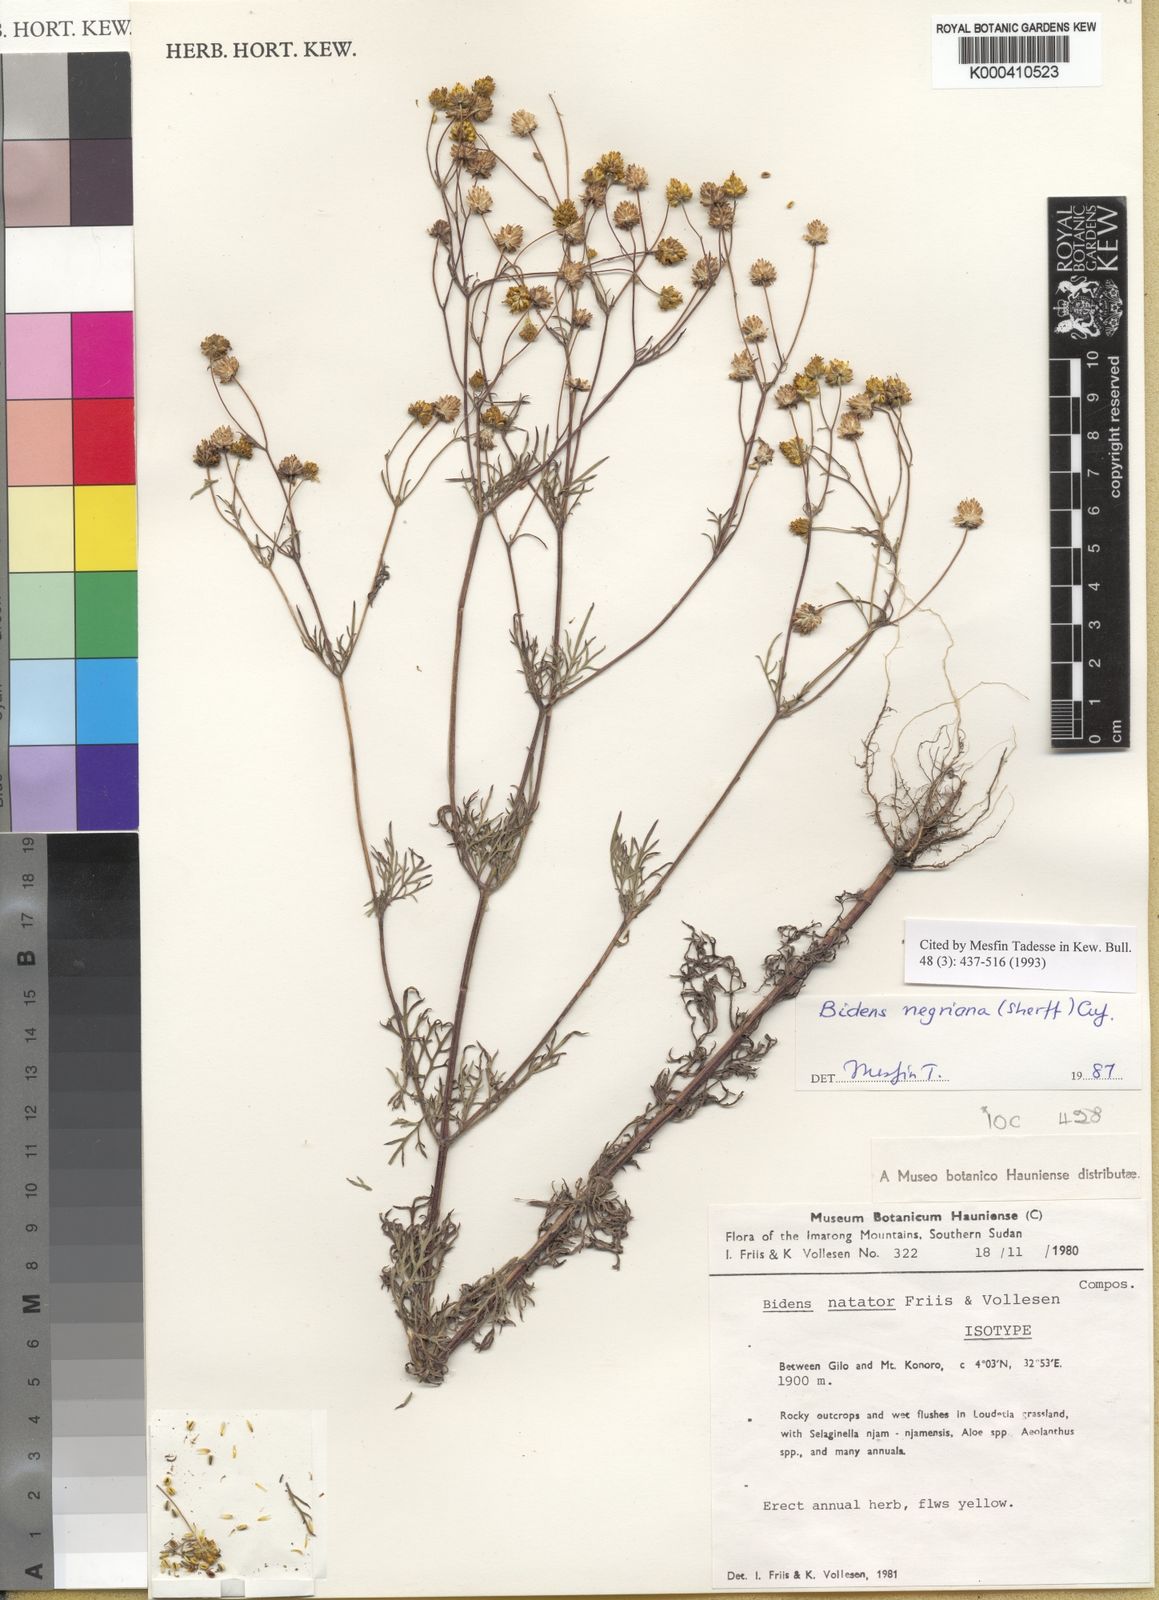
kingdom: Plantae
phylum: Tracheophyta
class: Magnoliopsida
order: Asterales
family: Asteraceae
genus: Bidens
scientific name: Bidens negriana
